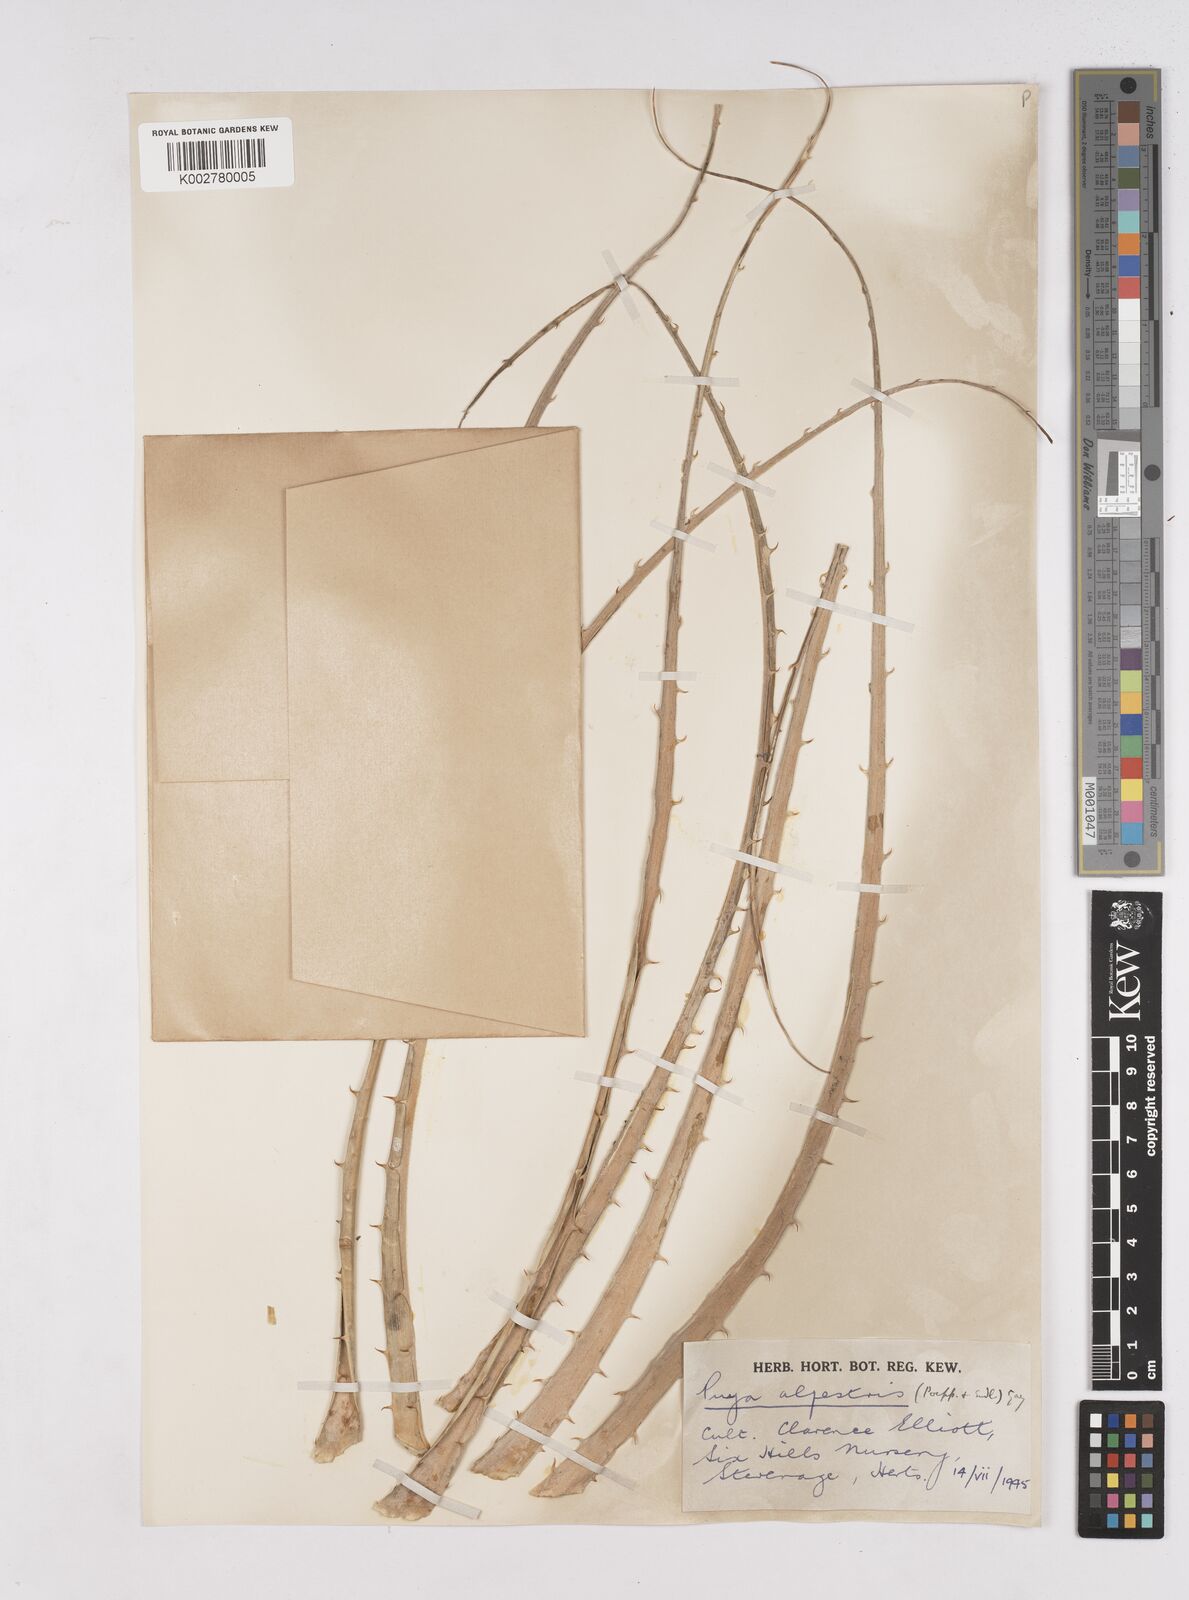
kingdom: Plantae
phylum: Tracheophyta
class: Liliopsida
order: Poales
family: Bromeliaceae
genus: Puya
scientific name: Puya alpestris
